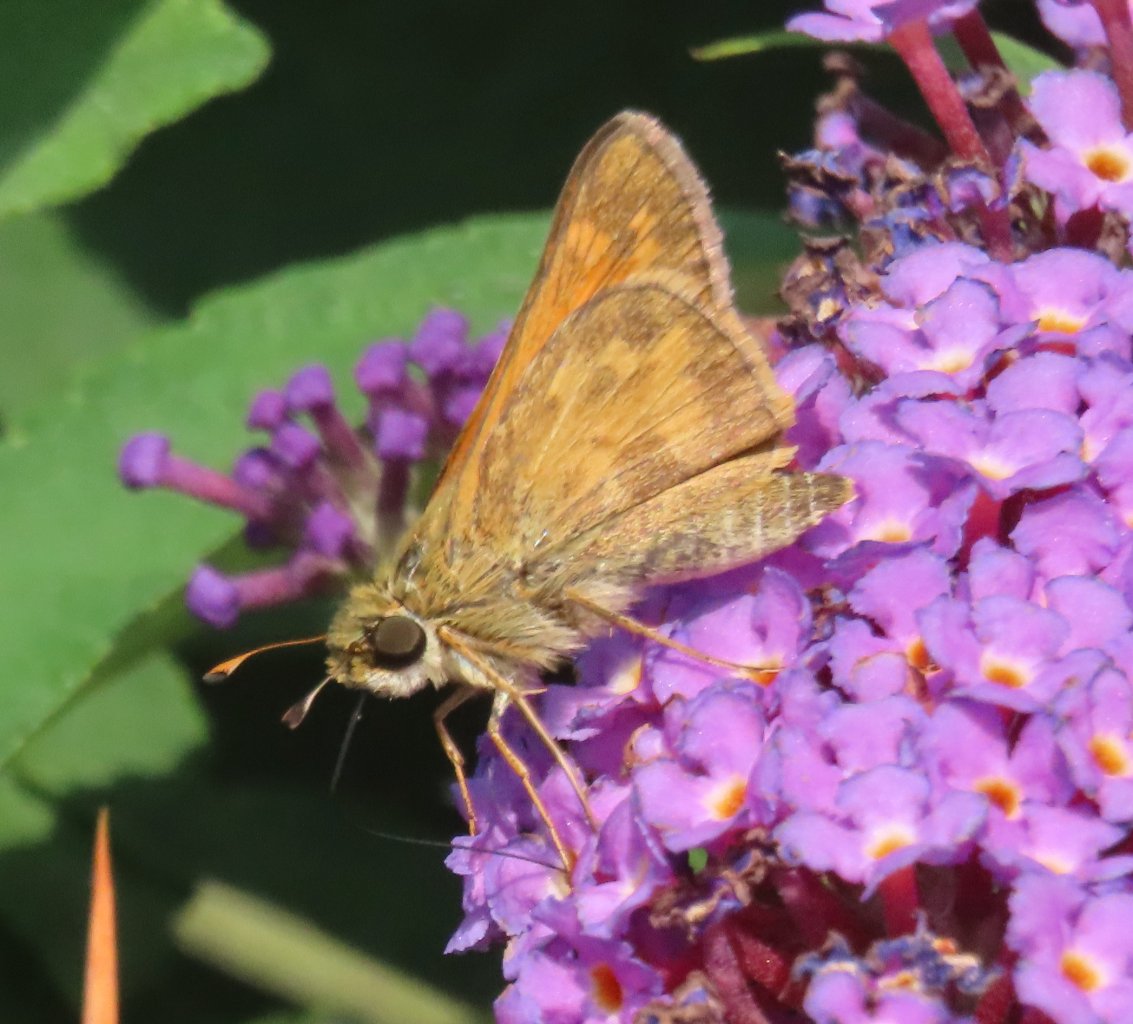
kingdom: Animalia
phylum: Arthropoda
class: Insecta
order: Lepidoptera
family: Hesperiidae
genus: Atalopedes
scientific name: Atalopedes campestris
